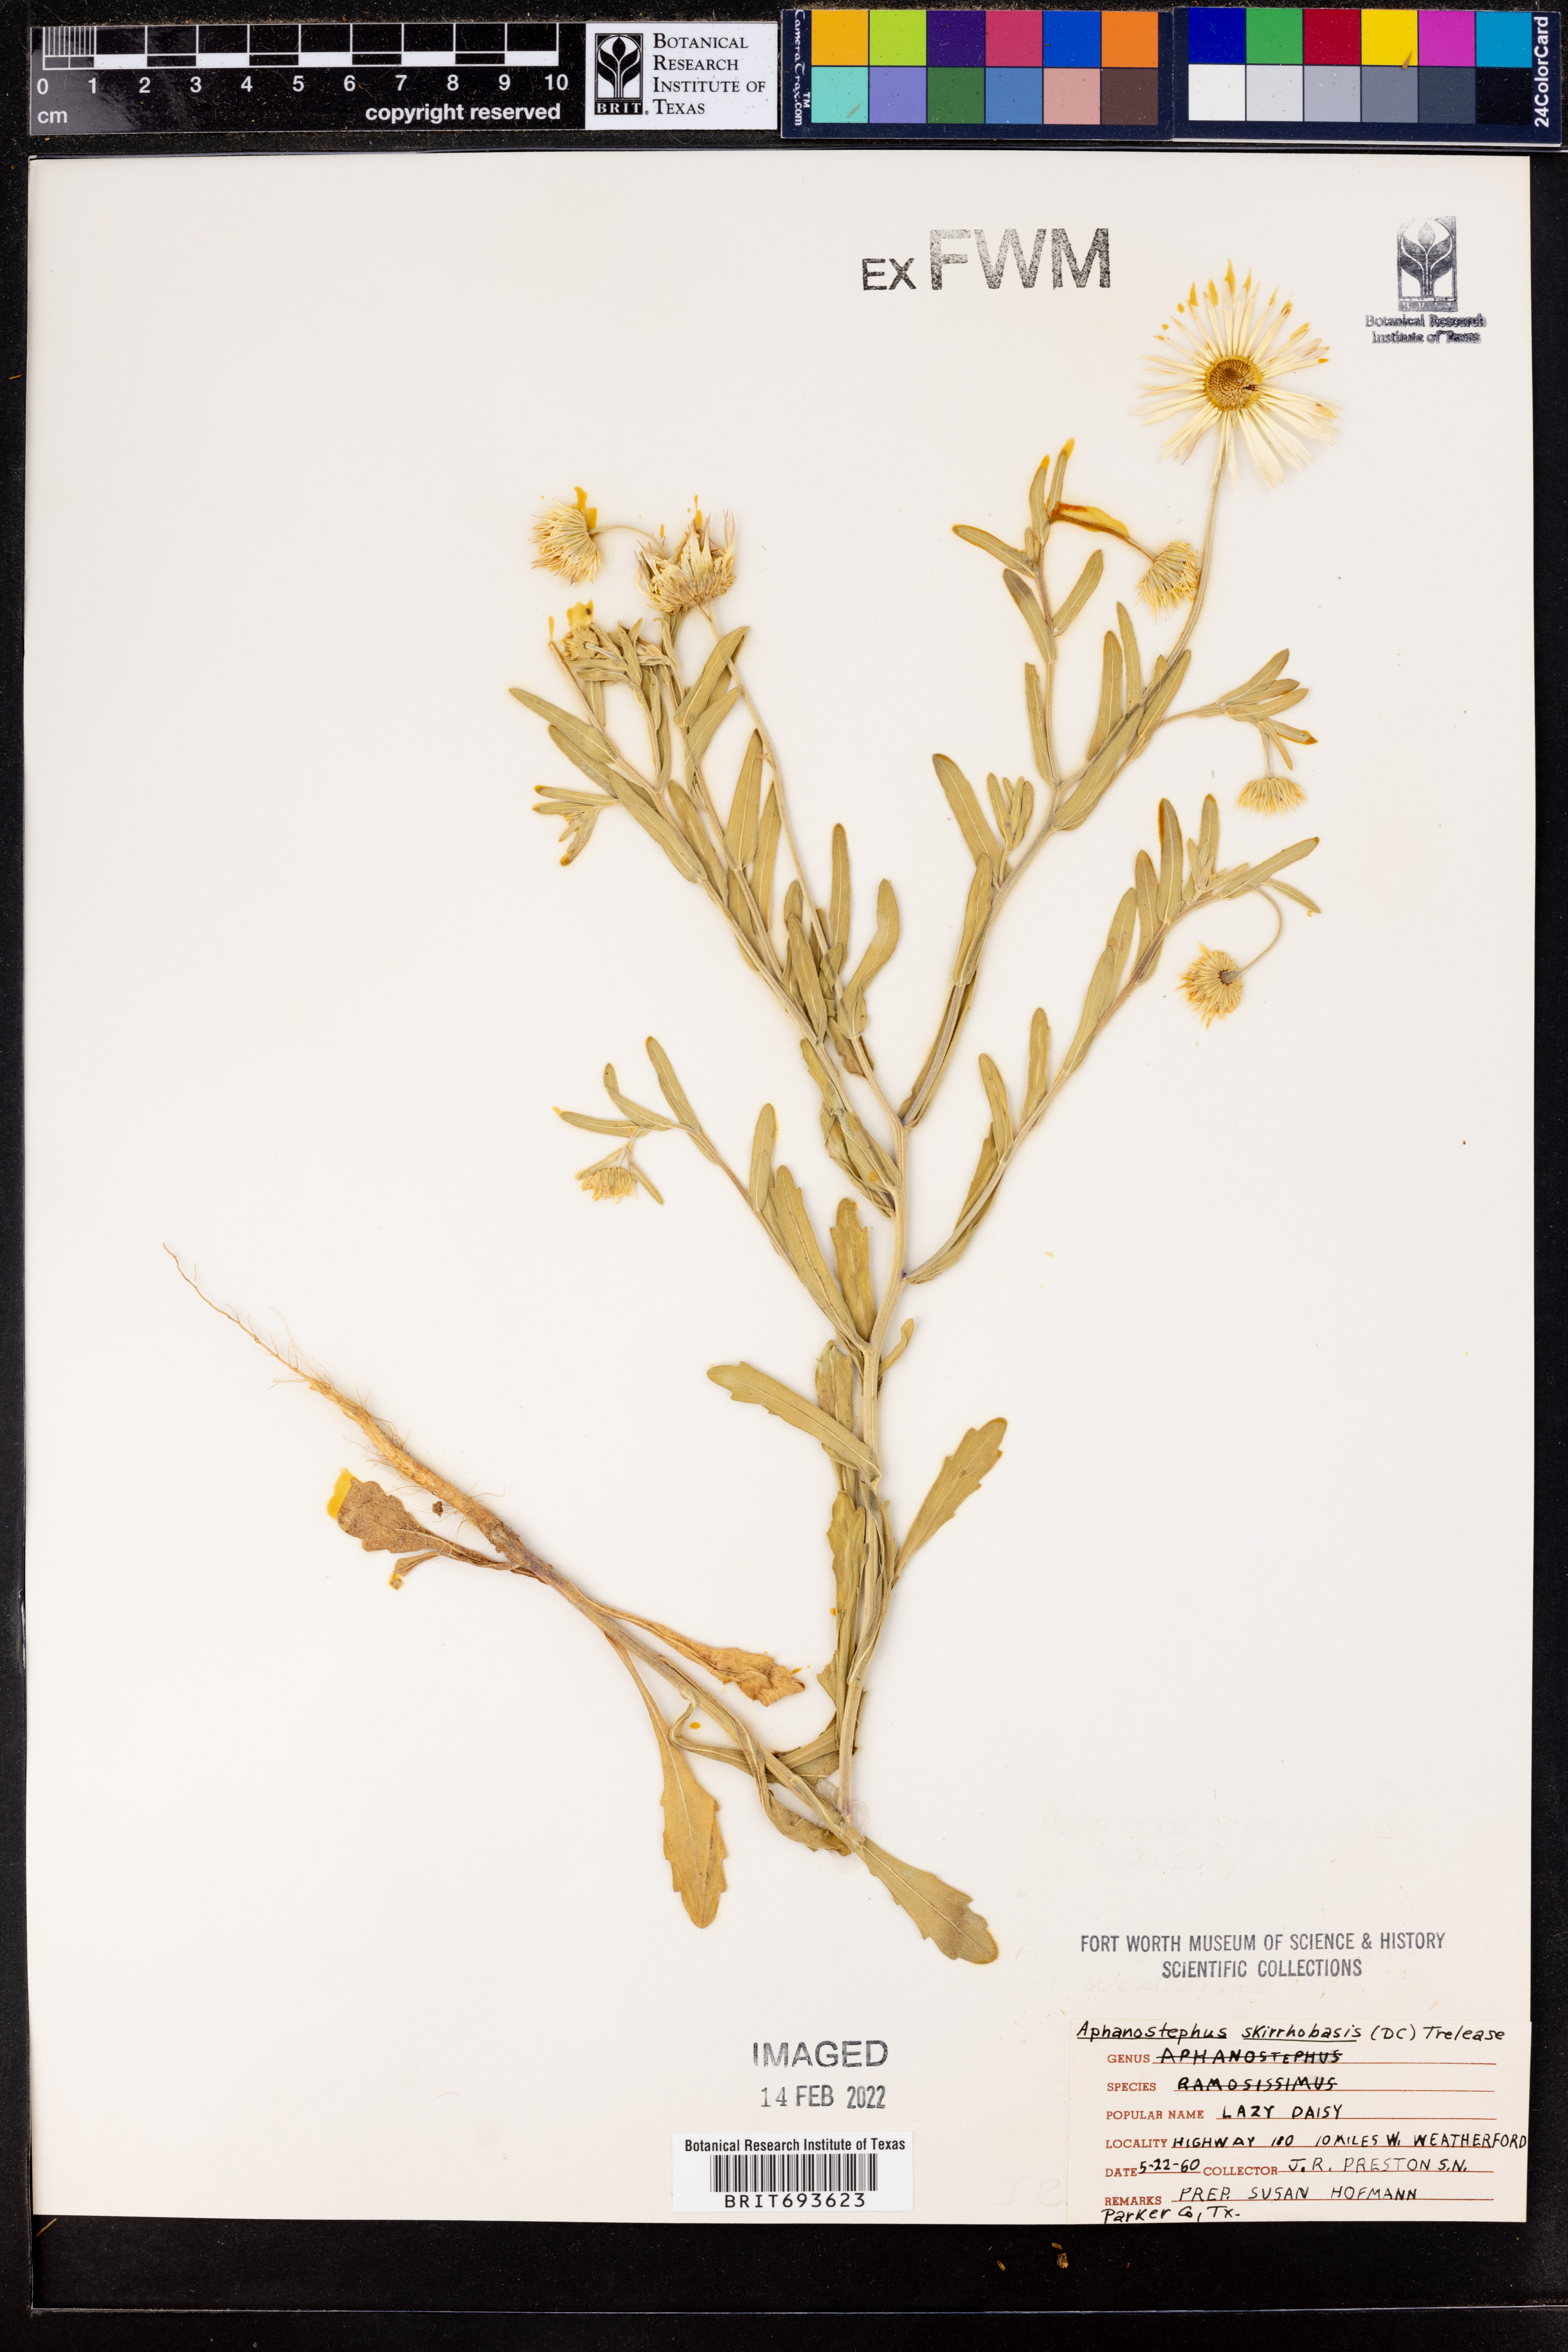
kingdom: Plantae
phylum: Tracheophyta
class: Magnoliopsida
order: Asterales
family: Asteraceae
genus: Aphanostephus
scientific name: Aphanostephus skirrhobasis
